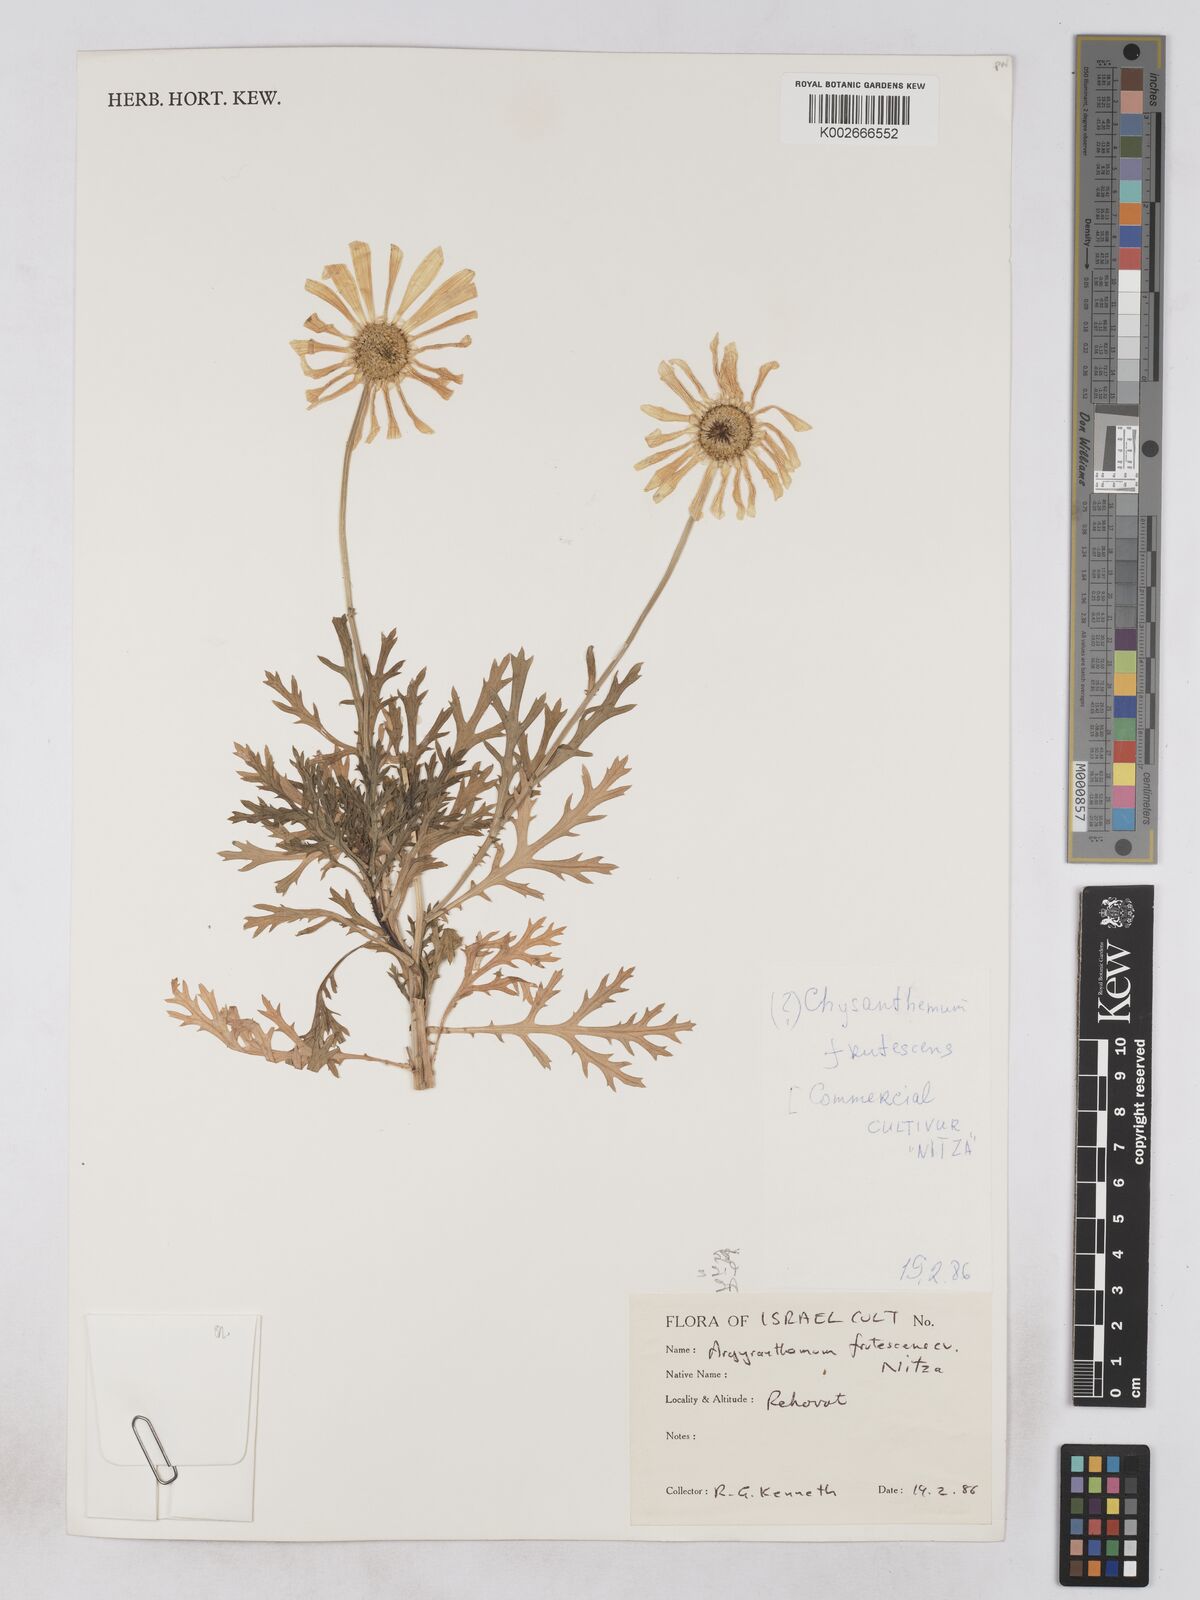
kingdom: Plantae
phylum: Tracheophyta
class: Magnoliopsida
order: Asterales
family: Asteraceae
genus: Argyranthemum
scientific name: Argyranthemum frutescens
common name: Paris daisy
